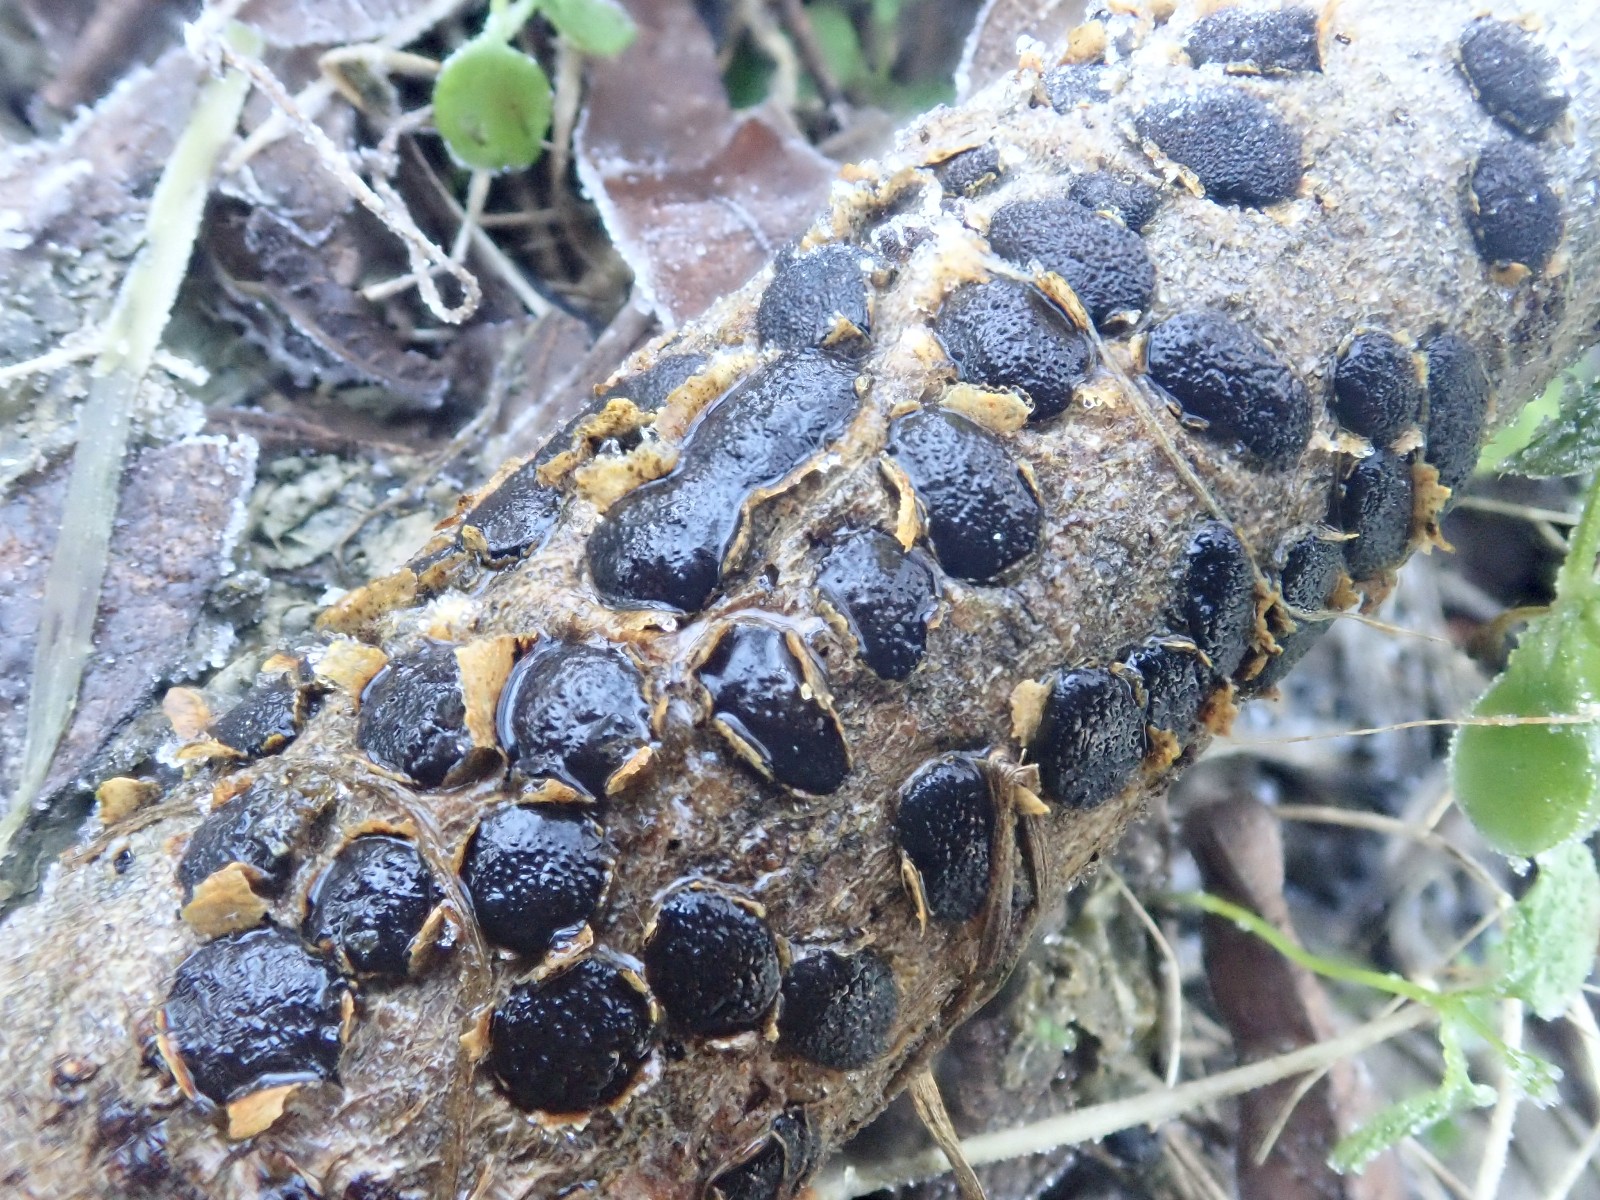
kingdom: Fungi
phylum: Ascomycota
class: Sordariomycetes
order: Xylariales
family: Diatrypaceae
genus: Diatrype
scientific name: Diatrype bullata
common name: pile-kulskorpe
